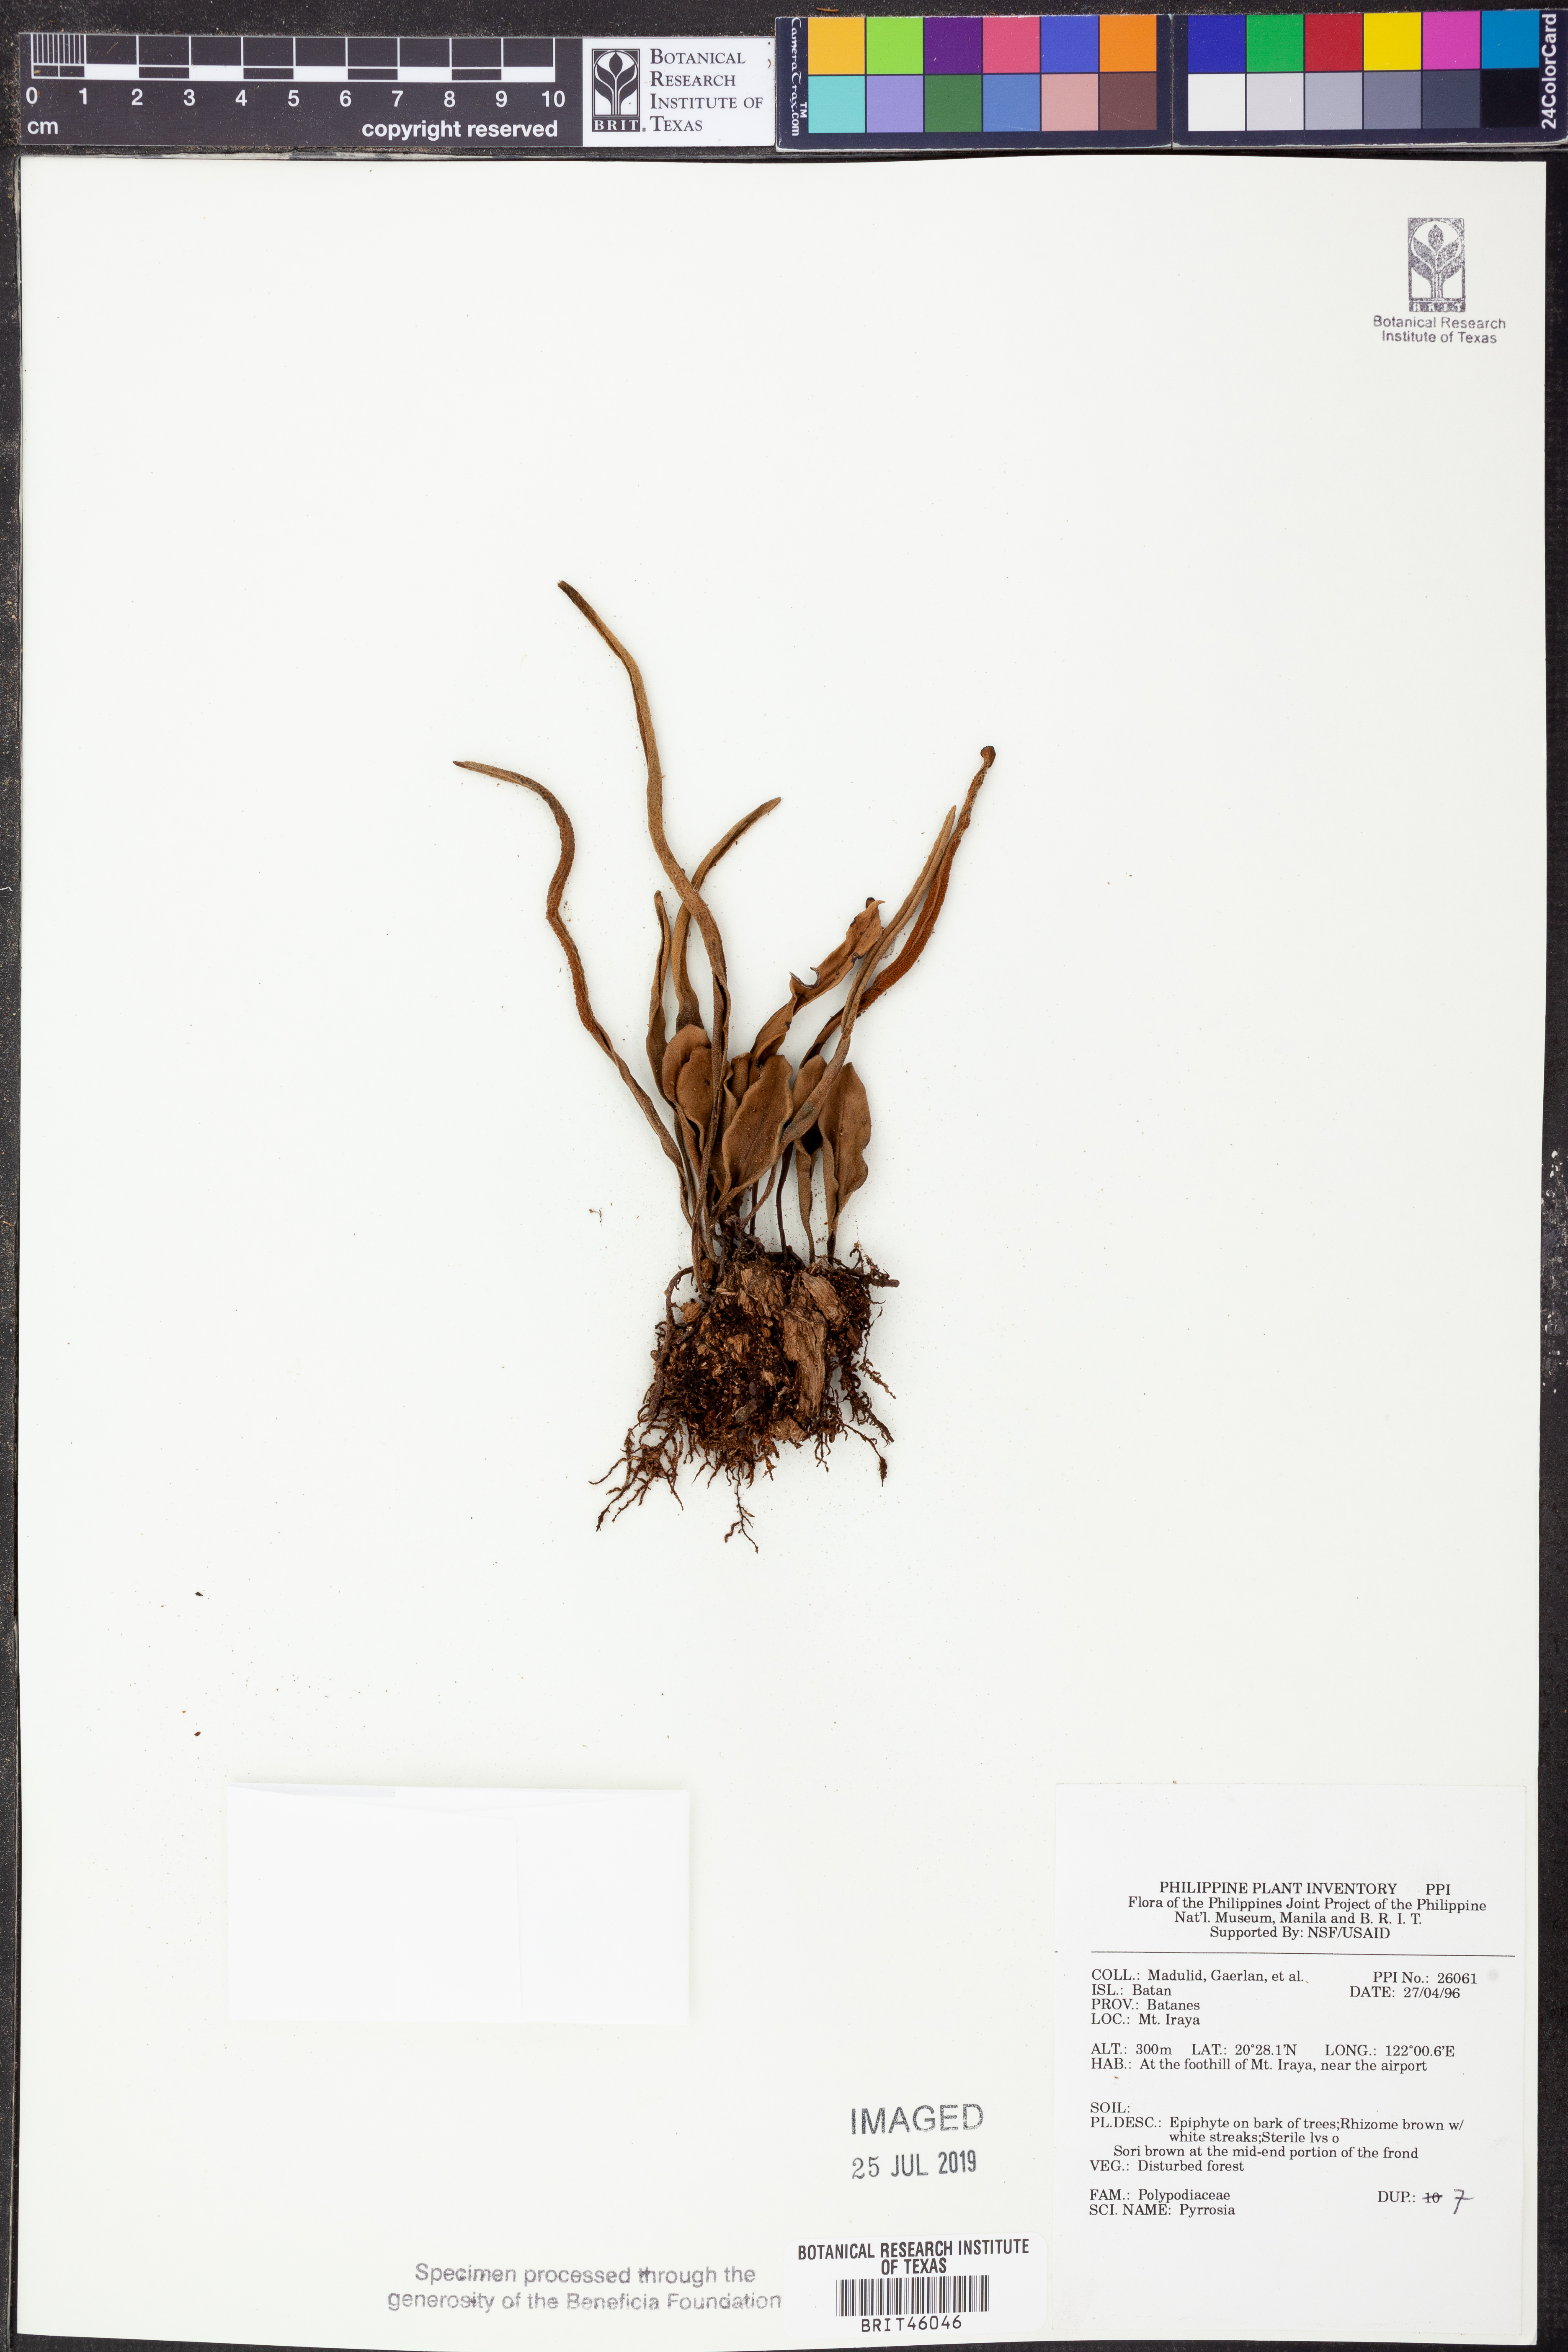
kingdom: Plantae
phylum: Tracheophyta
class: Polypodiopsida
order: Polypodiales
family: Polypodiaceae
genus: Pyrrosia
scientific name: Pyrrosia
